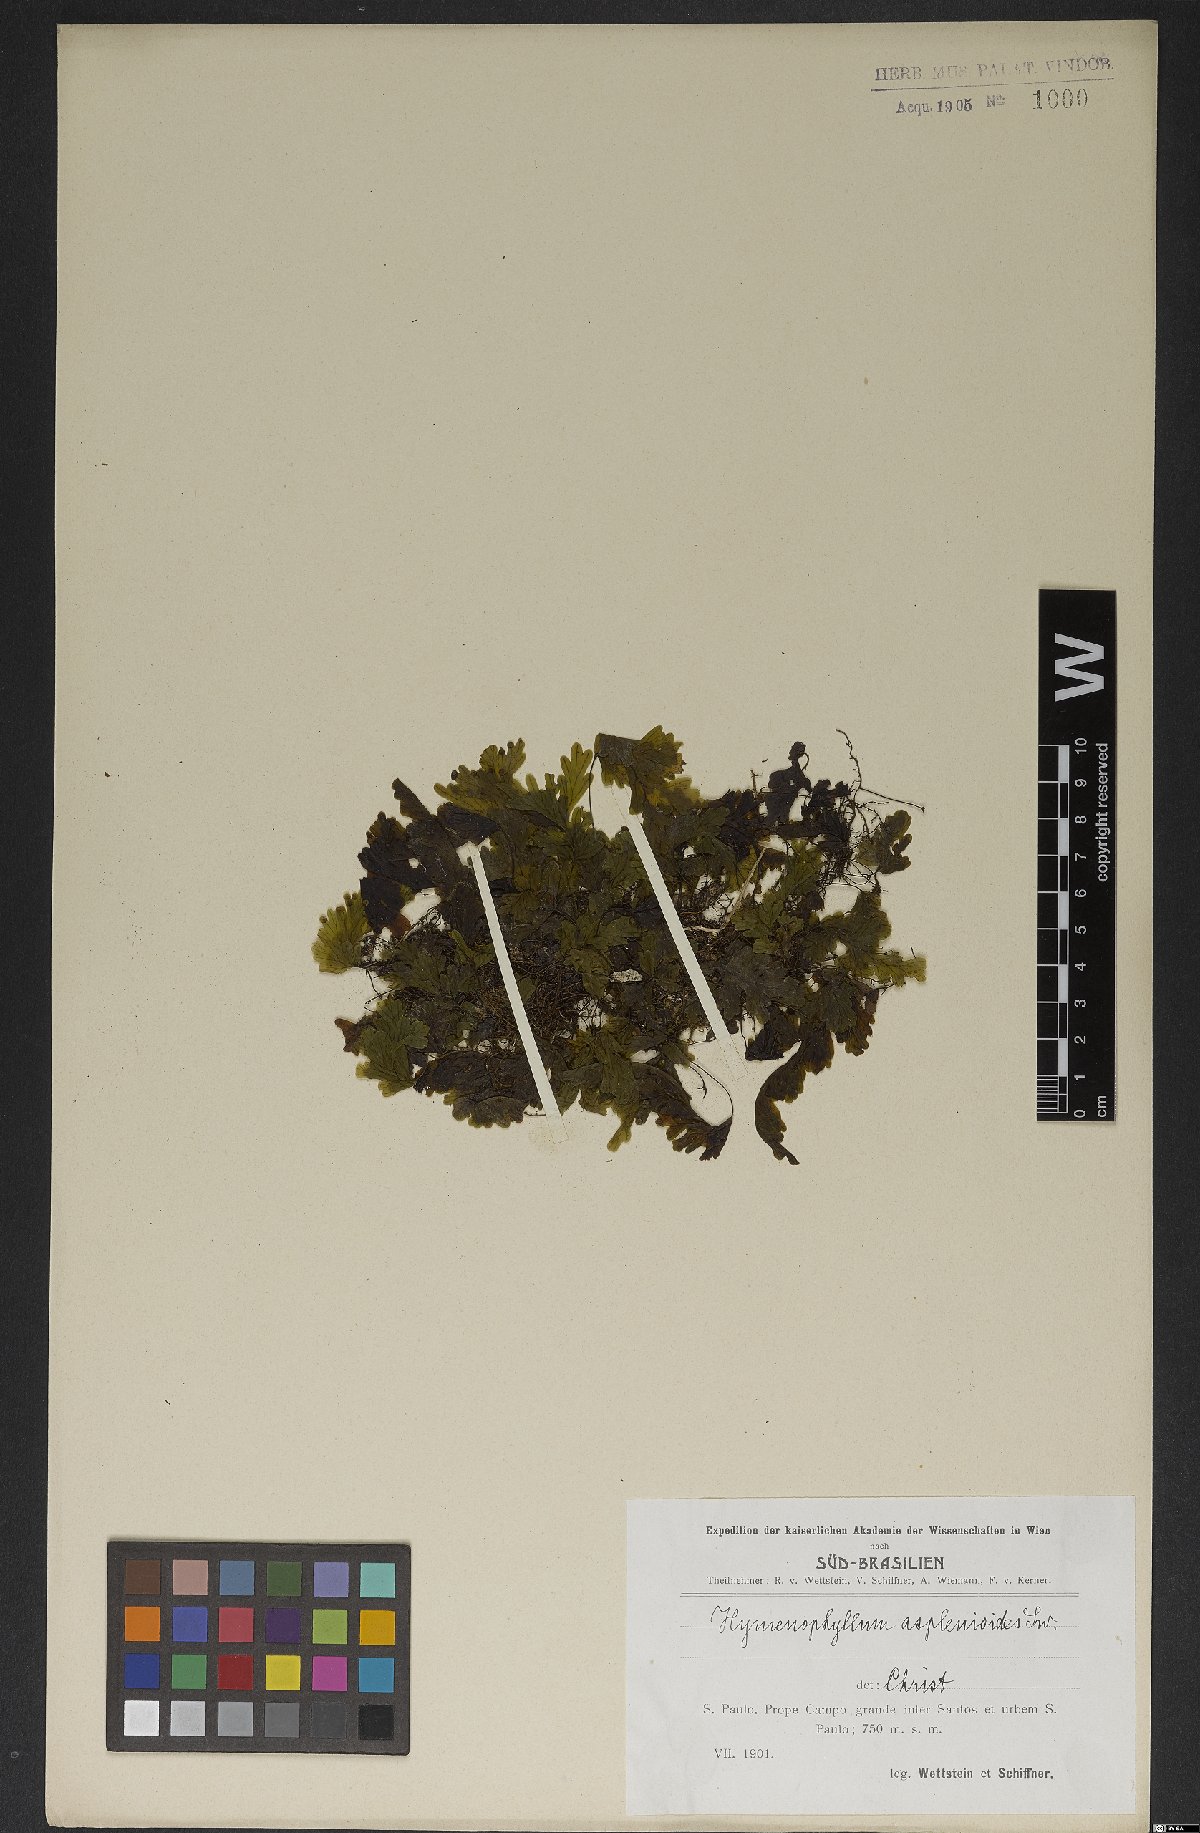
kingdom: Plantae
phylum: Tracheophyta
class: Polypodiopsida
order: Hymenophyllales
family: Hymenophyllaceae
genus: Hymenophyllum
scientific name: Hymenophyllum asplenioides
